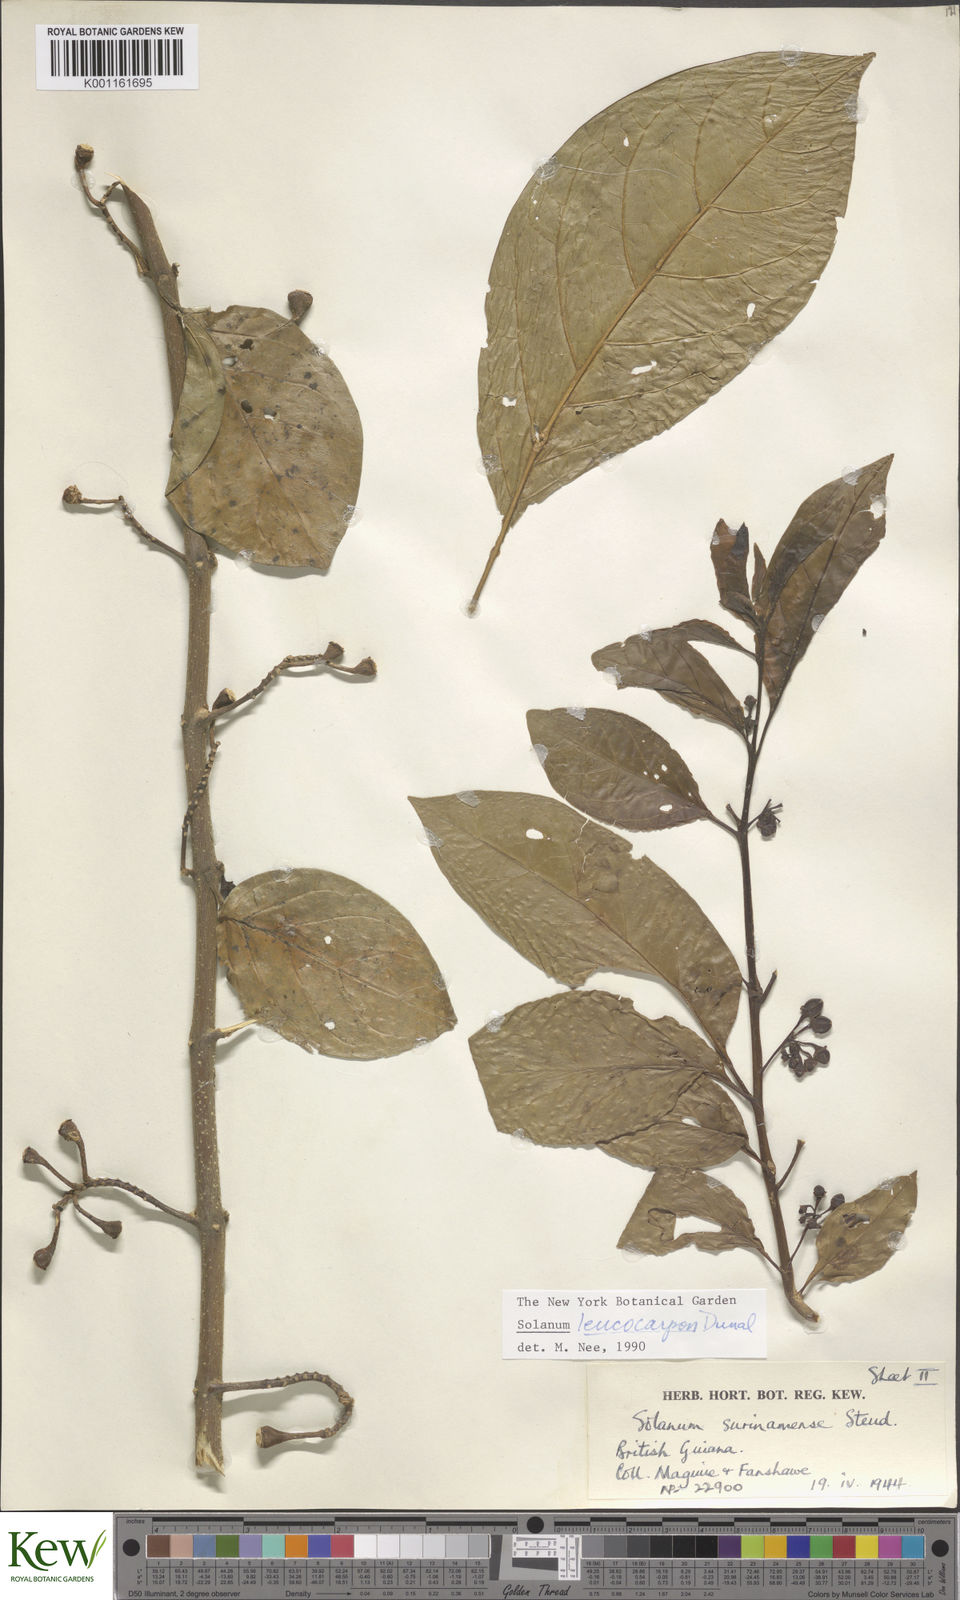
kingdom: Plantae
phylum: Tracheophyta
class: Magnoliopsida
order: Solanales
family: Solanaceae
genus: Solanum
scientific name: Solanum leucocarpon
